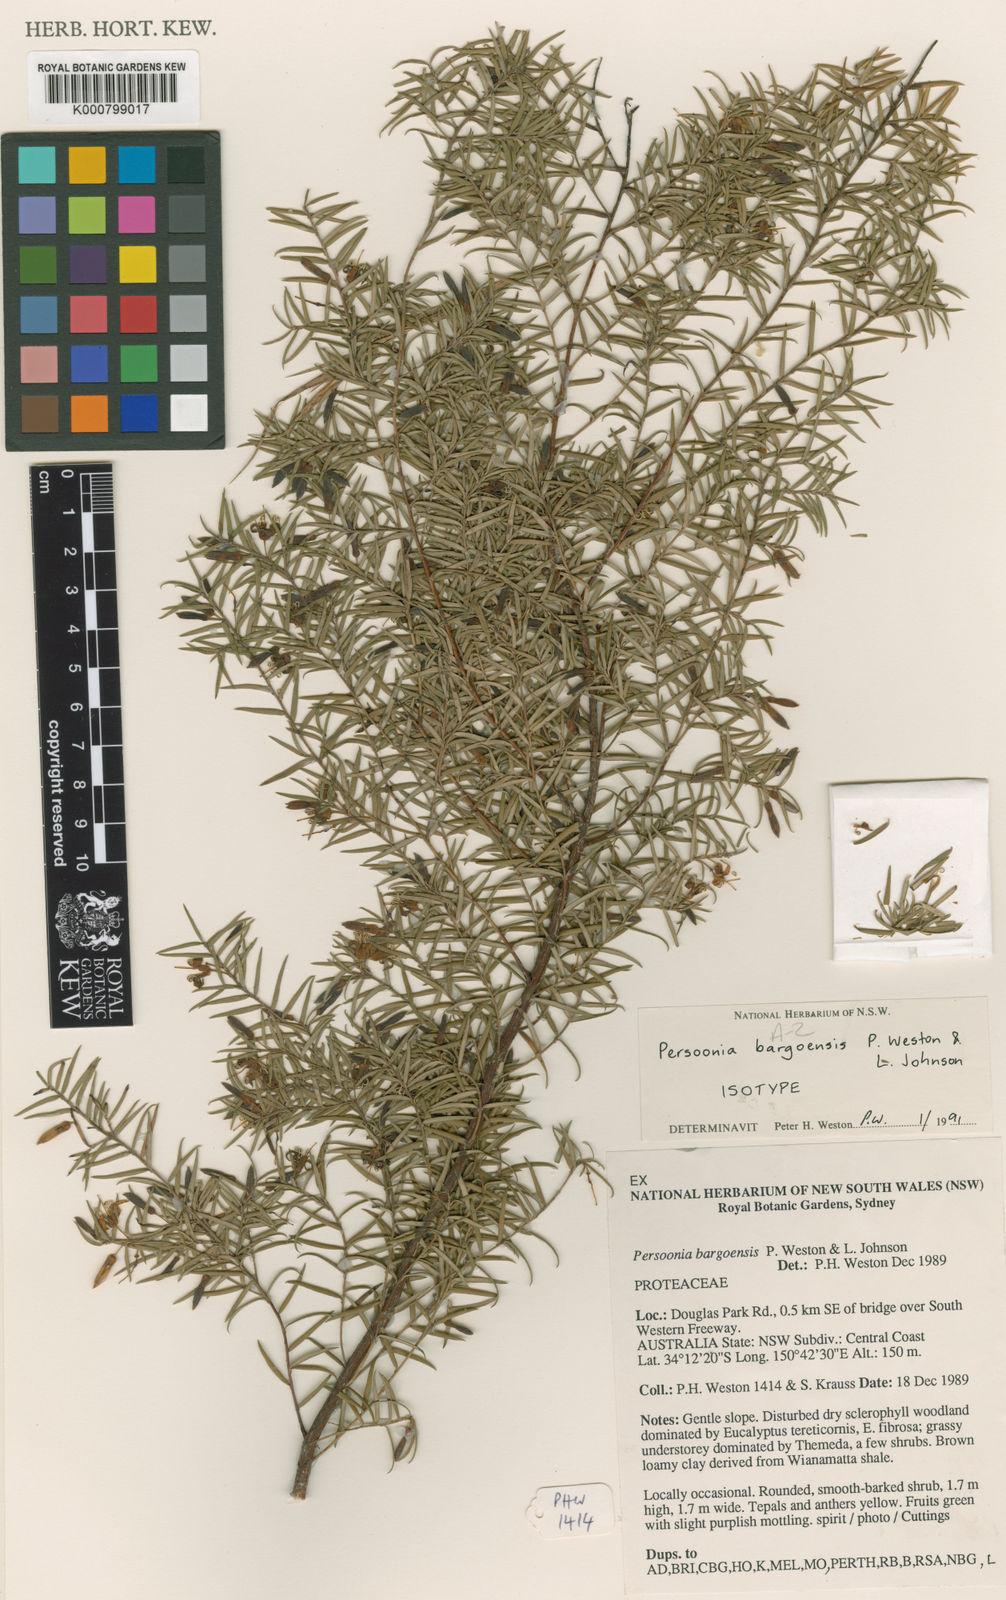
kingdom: Plantae
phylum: Tracheophyta
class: Magnoliopsida
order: Proteales
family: Proteaceae
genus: Persoonia
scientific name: Persoonia bargoensis
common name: Bargo geebung
